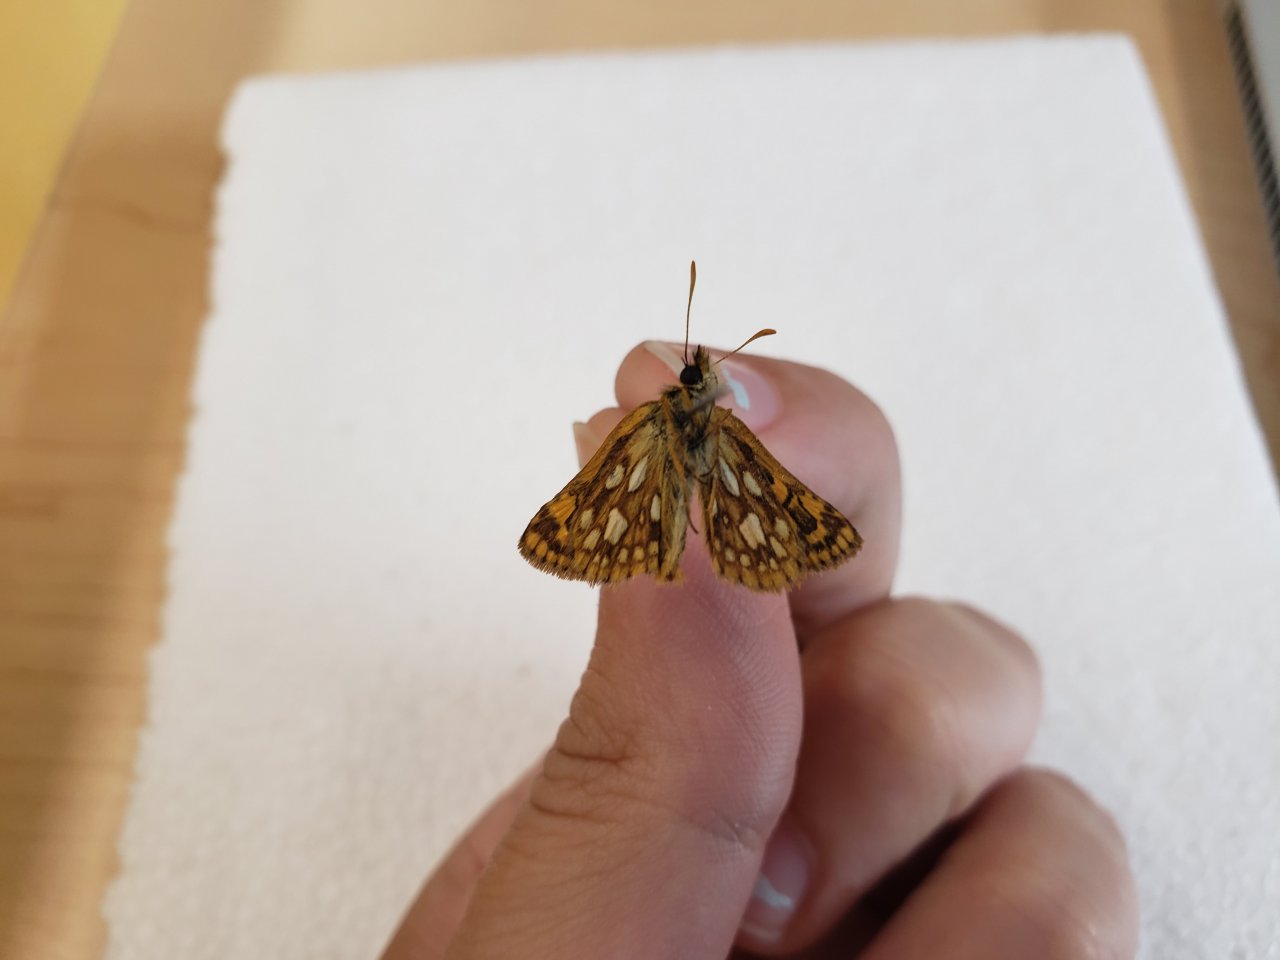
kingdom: Animalia
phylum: Arthropoda
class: Insecta
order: Lepidoptera
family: Hesperiidae
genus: Carterocephalus
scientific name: Carterocephalus palaemon
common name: Chequered Skipper
